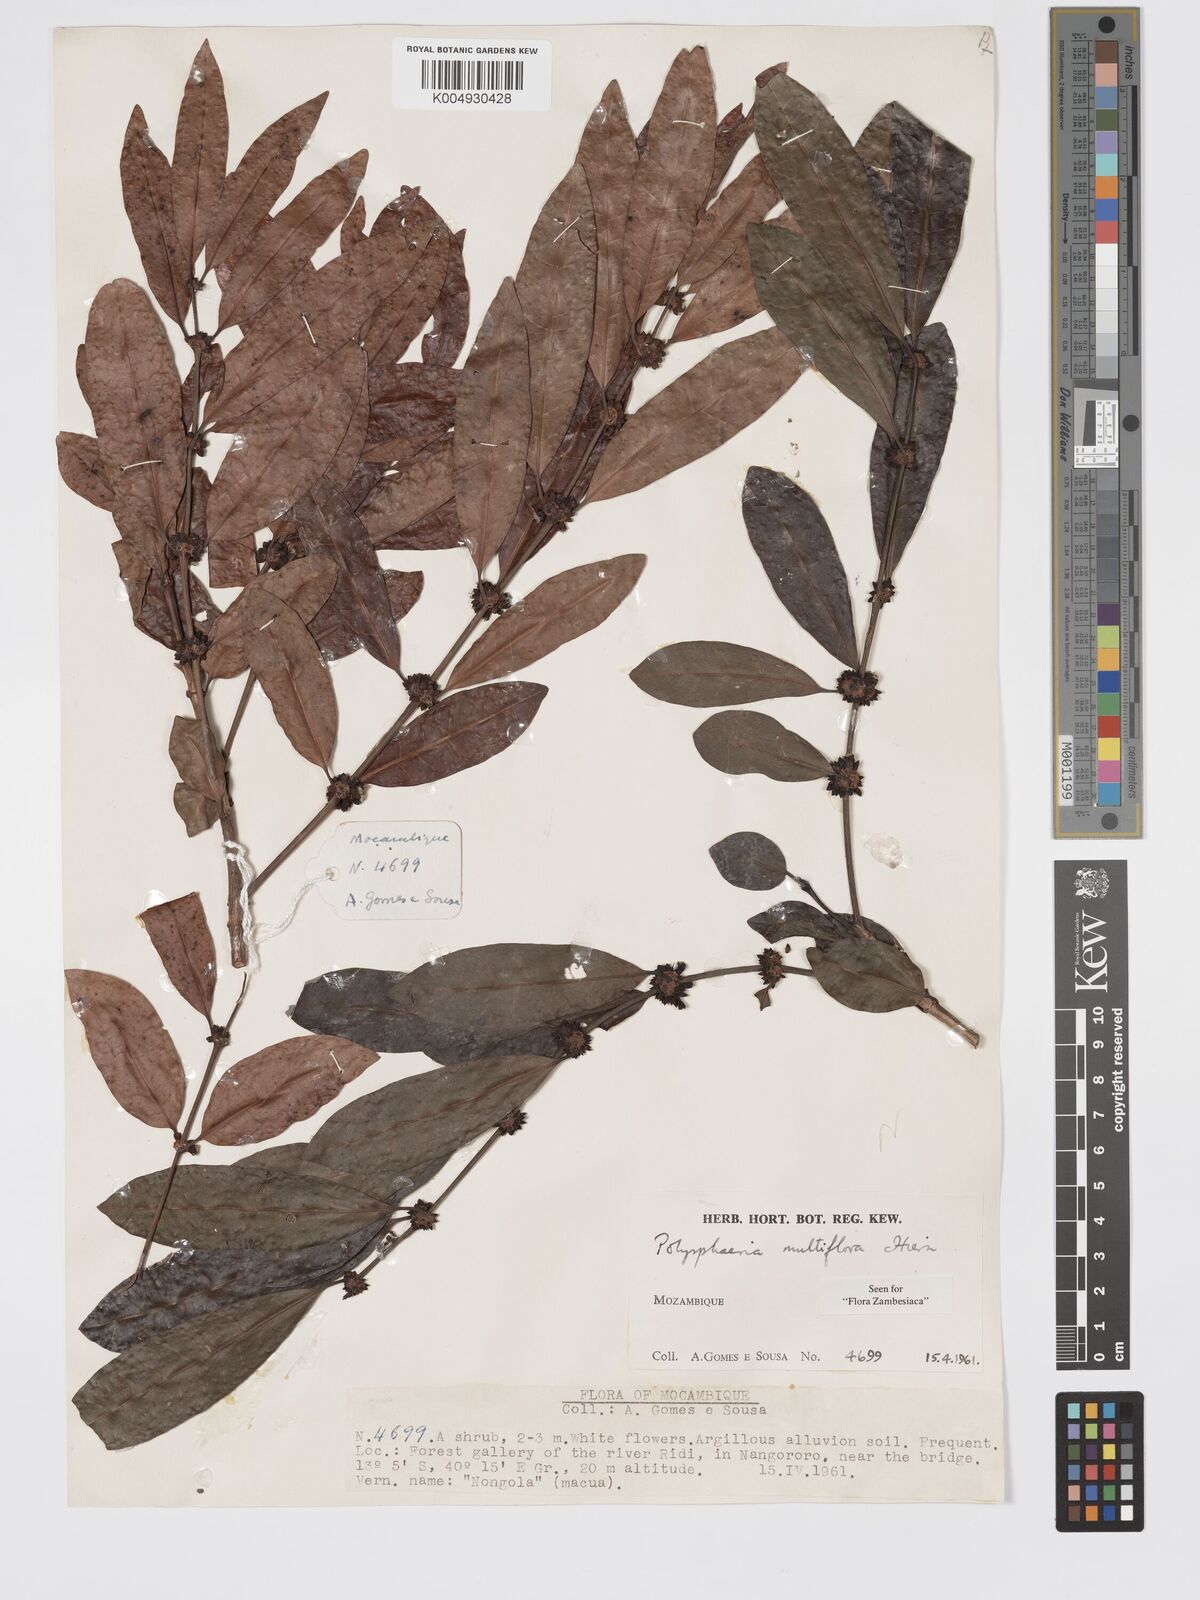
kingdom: Plantae
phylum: Tracheophyta
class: Magnoliopsida
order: Gentianales
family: Rubiaceae
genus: Polysphaeria
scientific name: Polysphaeria multiflora
